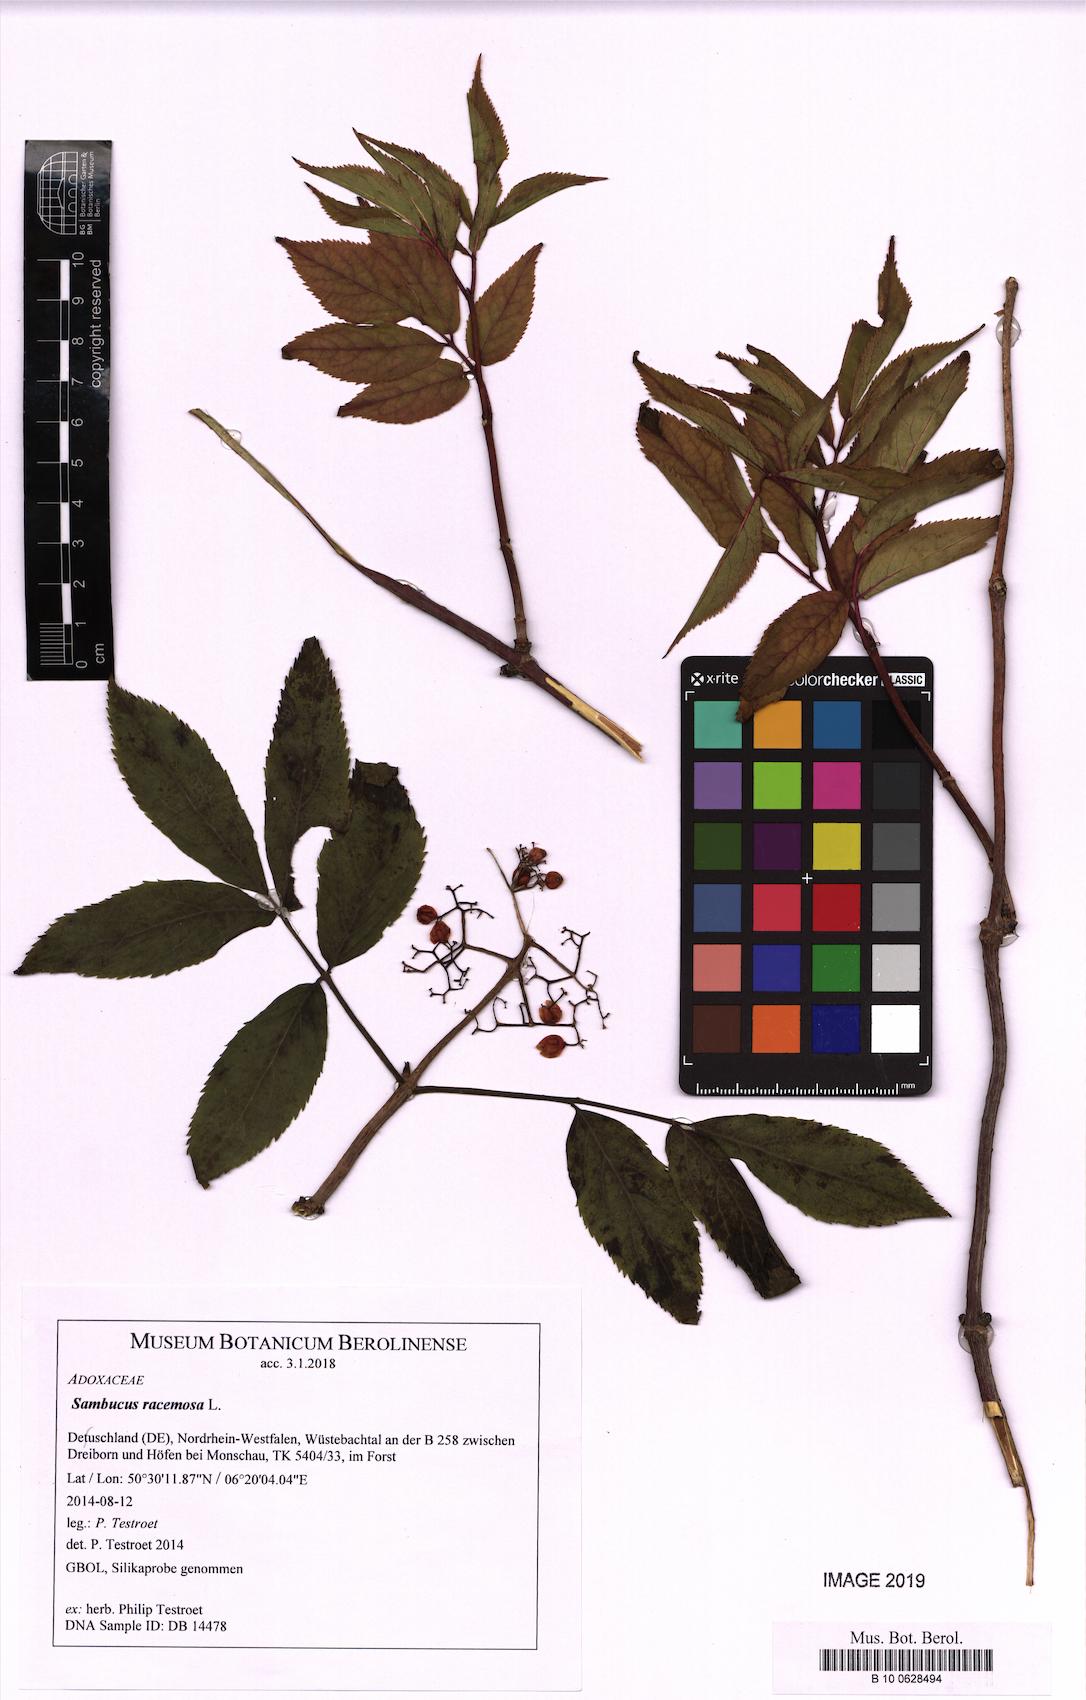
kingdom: Plantae
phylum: Tracheophyta
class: Magnoliopsida
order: Dipsacales
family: Viburnaceae
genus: Sambucus
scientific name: Sambucus racemosa
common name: Red-berried elder
